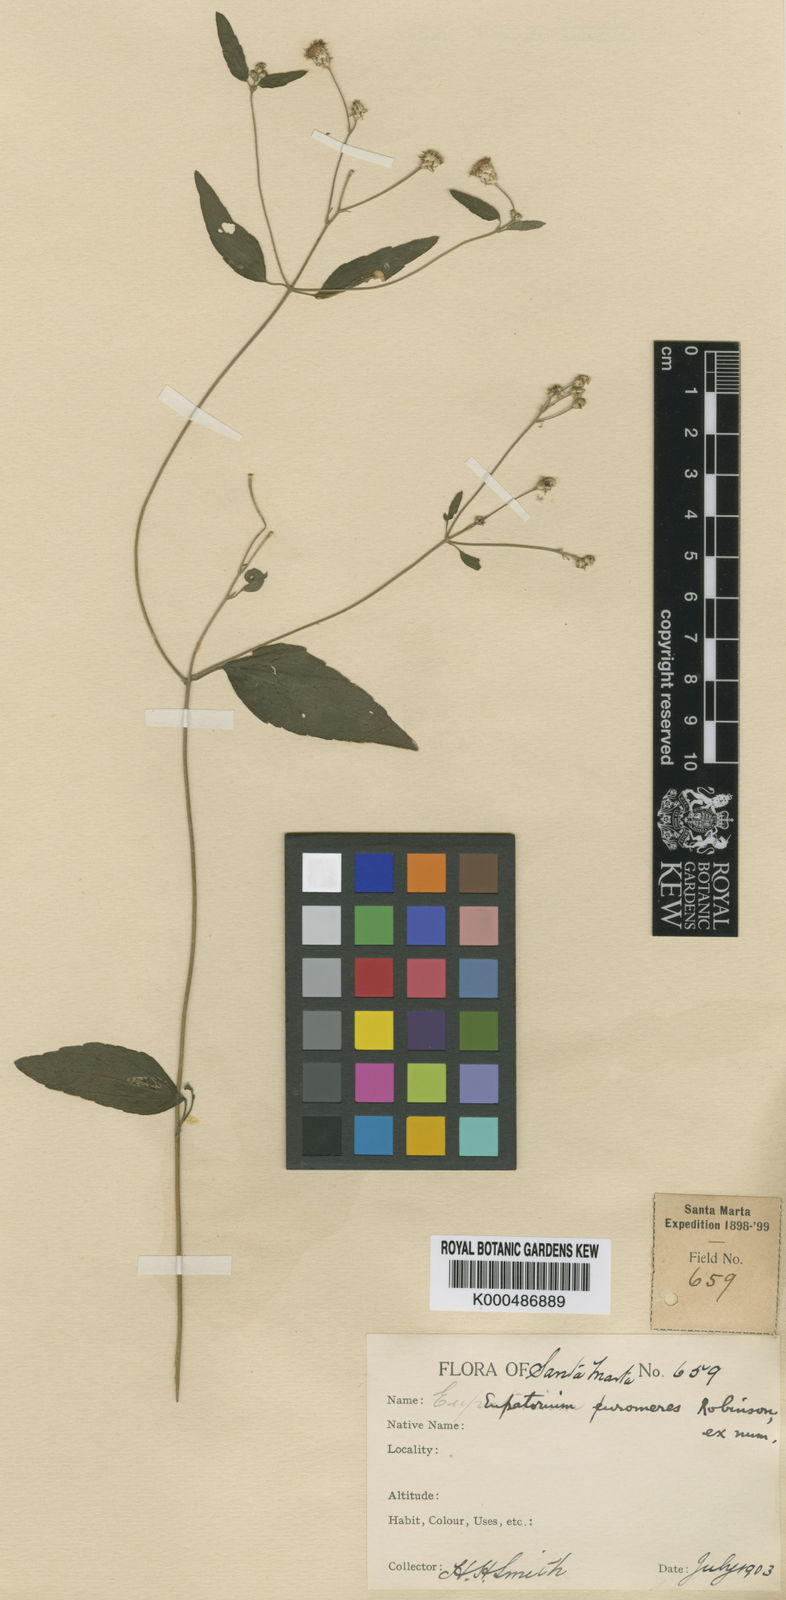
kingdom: Plantae
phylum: Tracheophyta
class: Magnoliopsida
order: Asterales
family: Asteraceae
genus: Chromolaena
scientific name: Chromolaena uromeres
